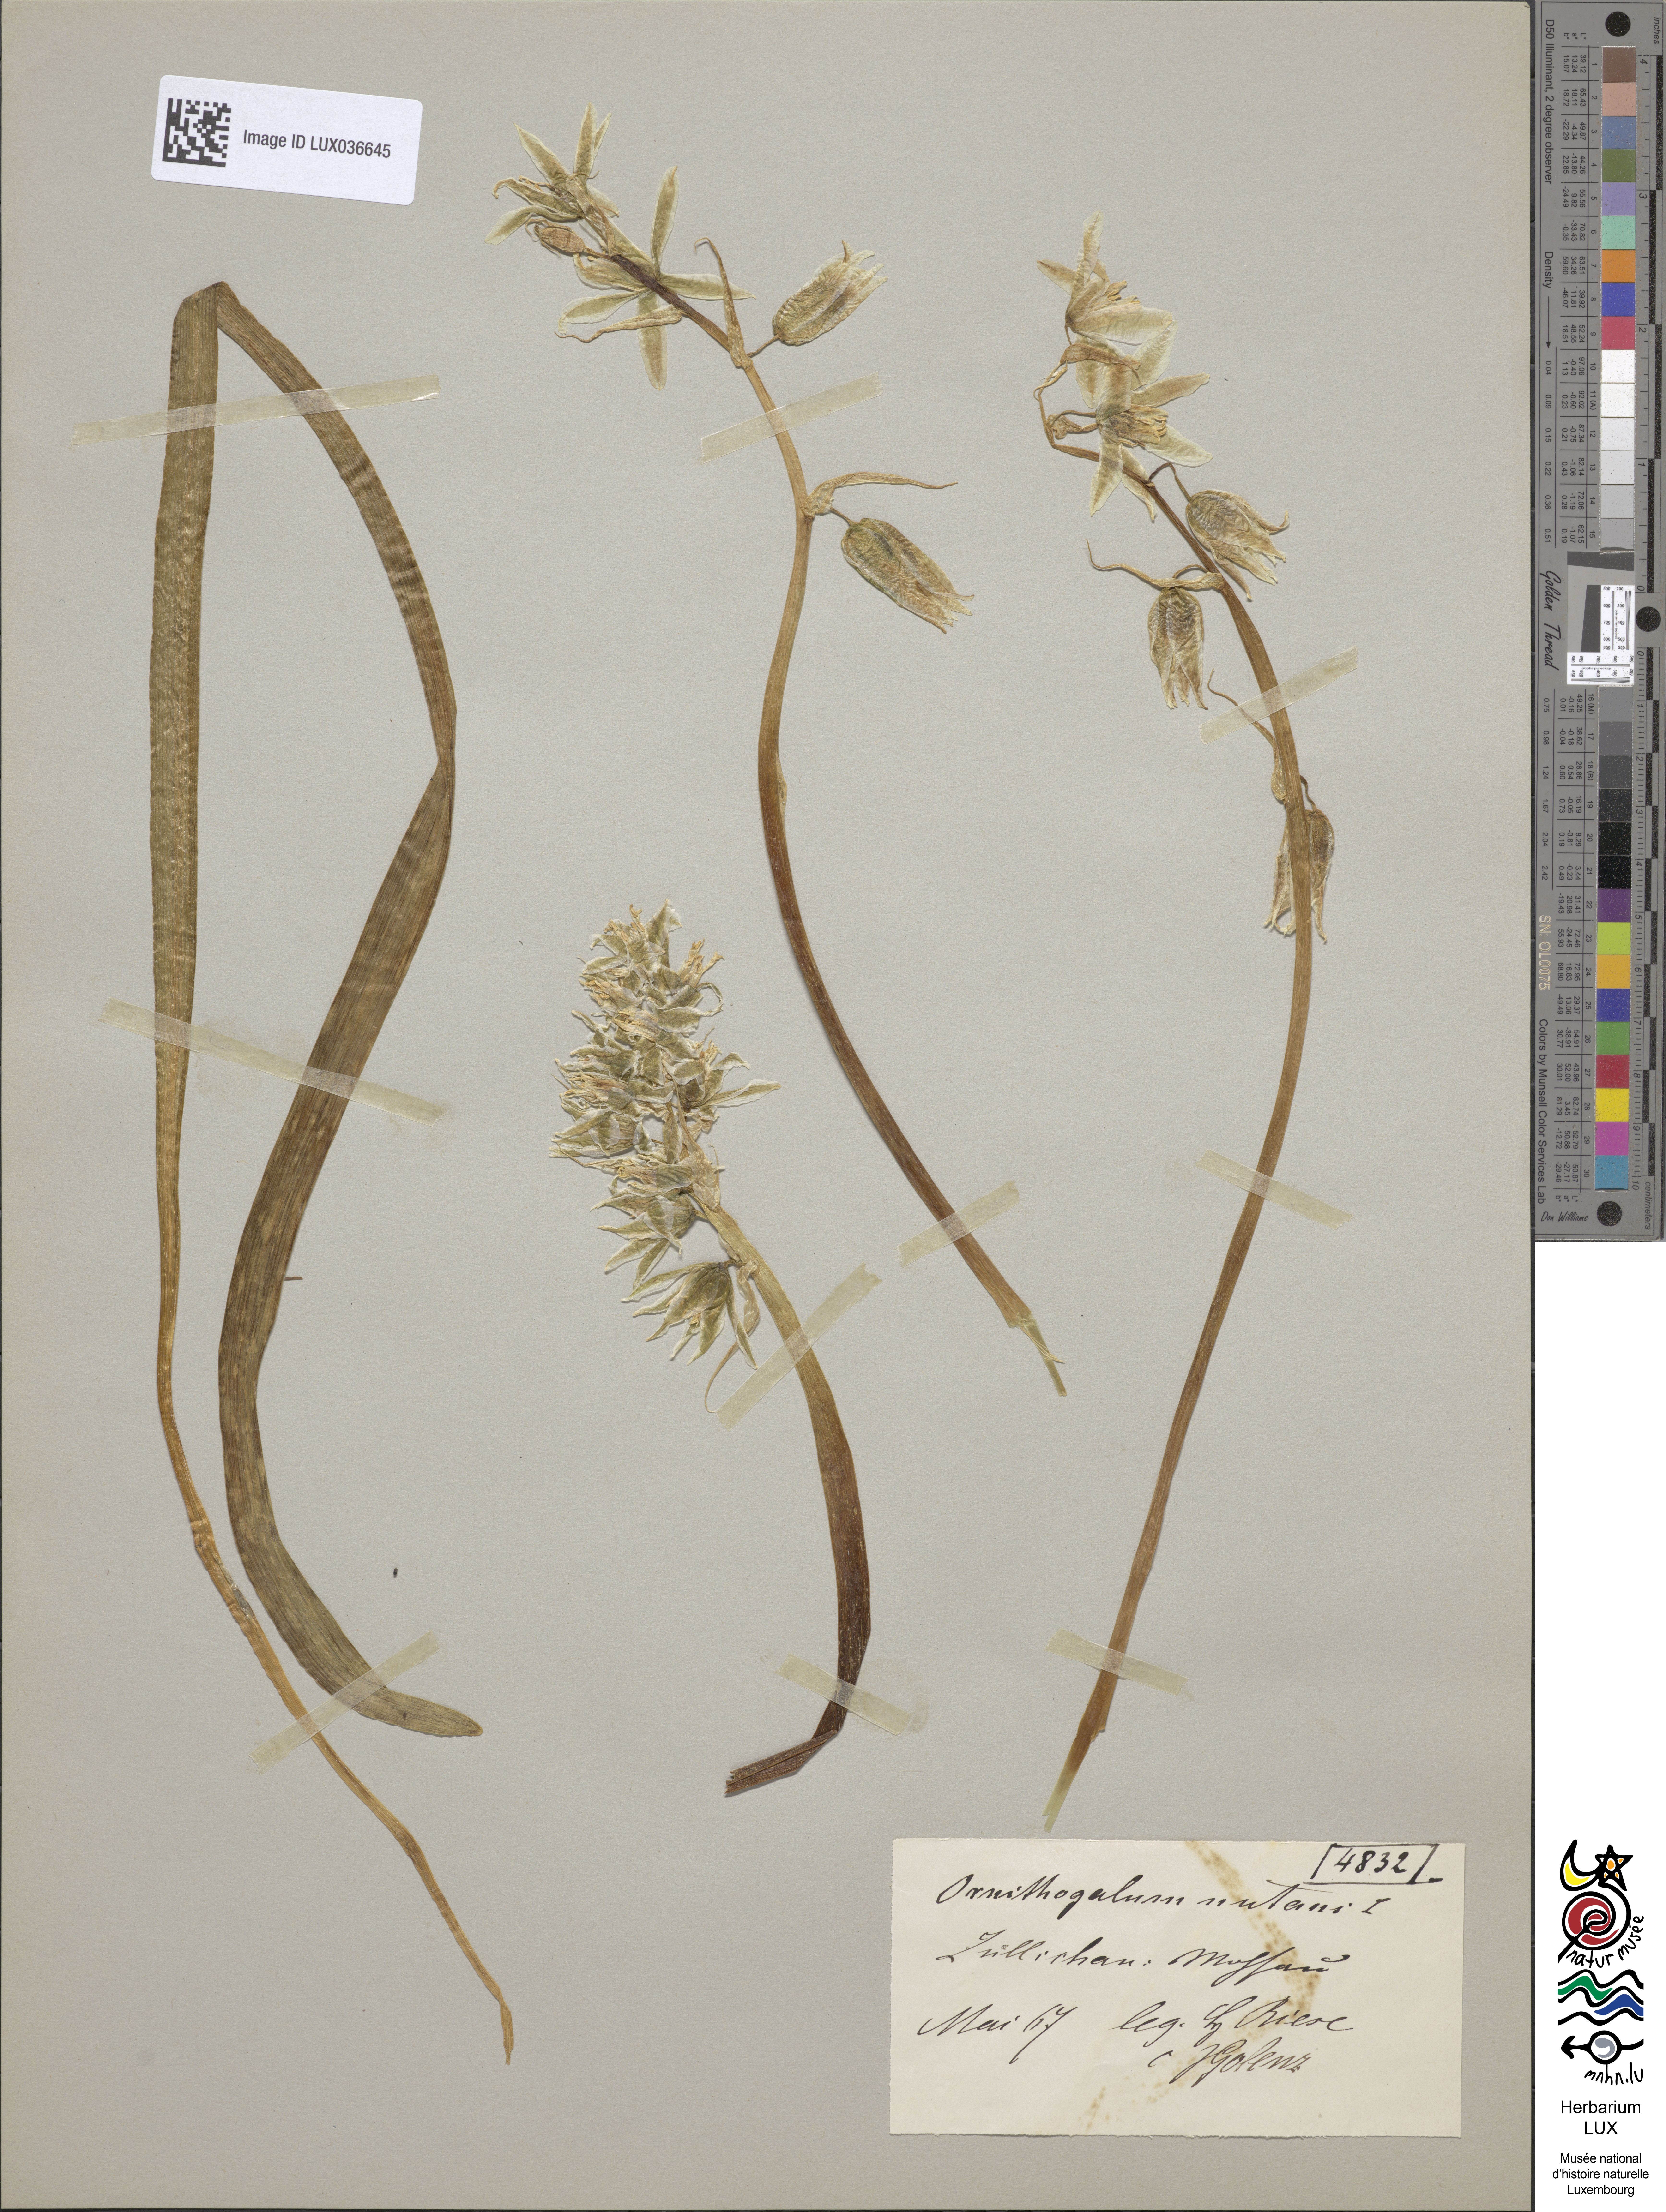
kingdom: Plantae
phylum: Tracheophyta
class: Liliopsida
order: Asparagales
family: Asparagaceae
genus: Ornithogalum
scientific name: Ornithogalum nutans
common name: Drooping star-of-bethlehem
